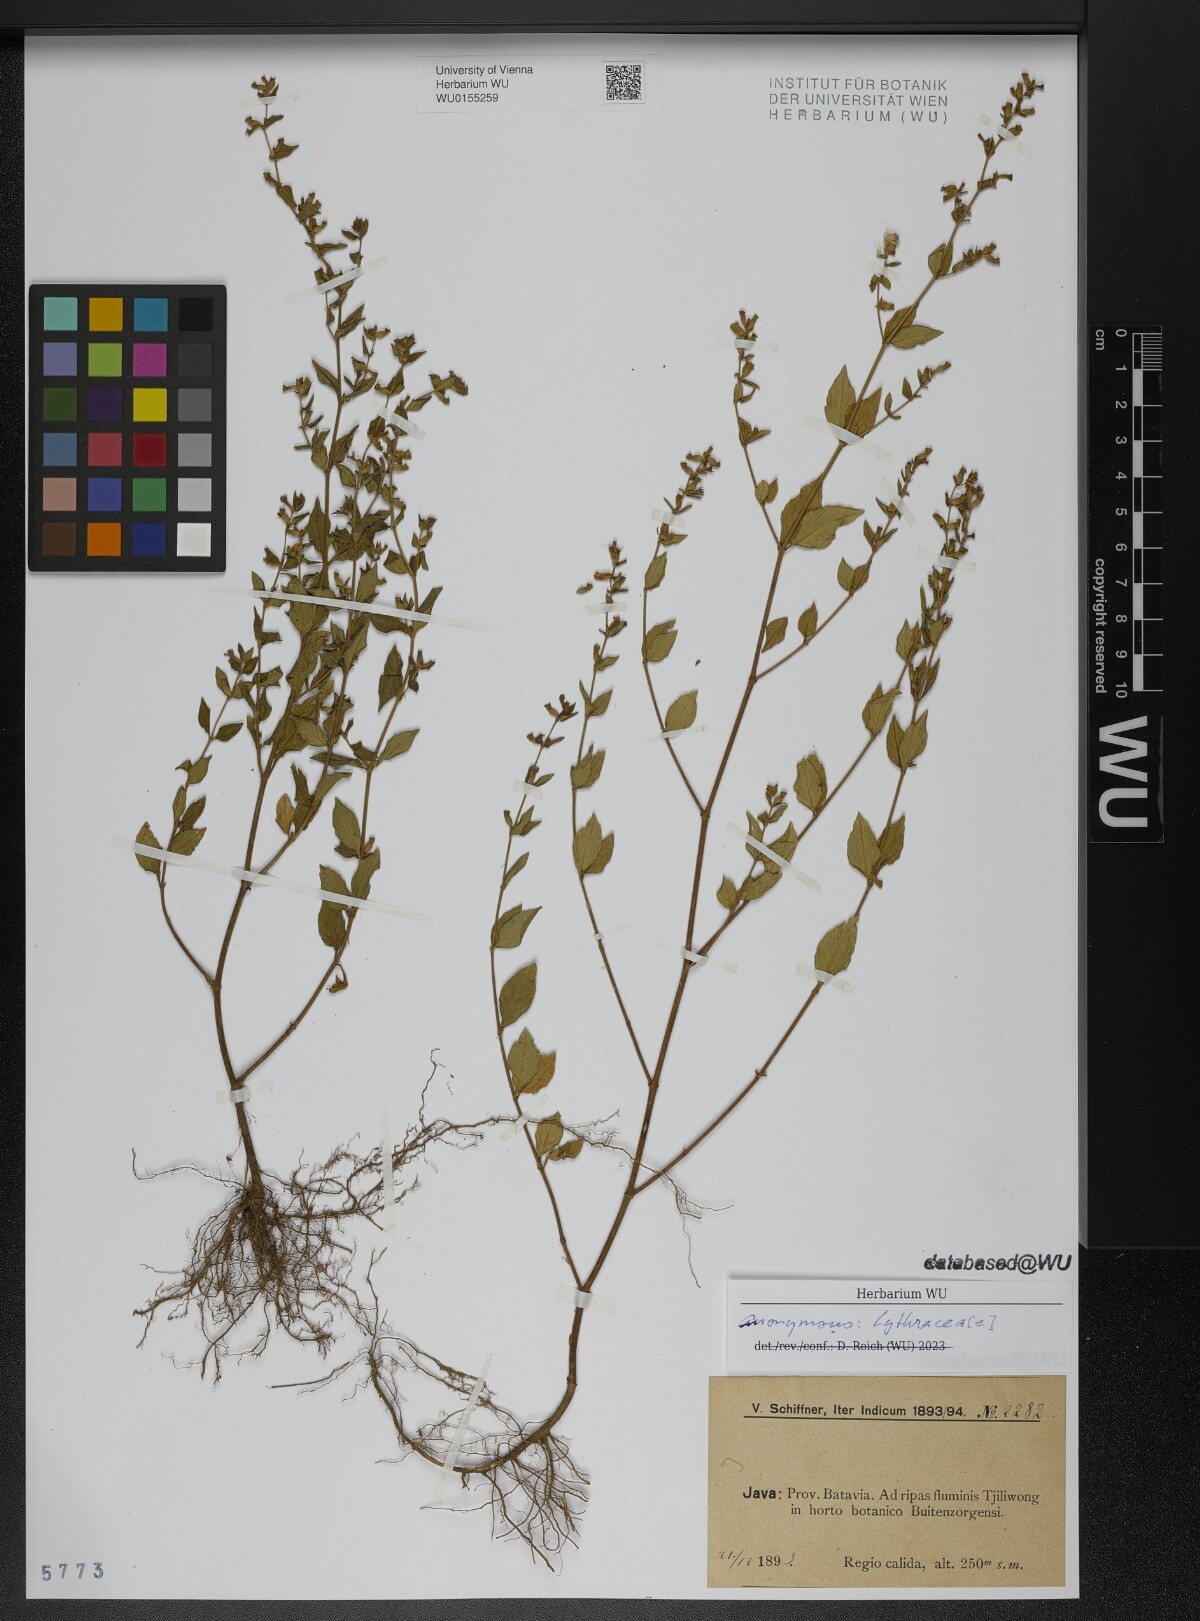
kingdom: Plantae
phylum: Tracheophyta
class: Magnoliopsida
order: Myrtales
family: Lythraceae
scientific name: Lythraceae
